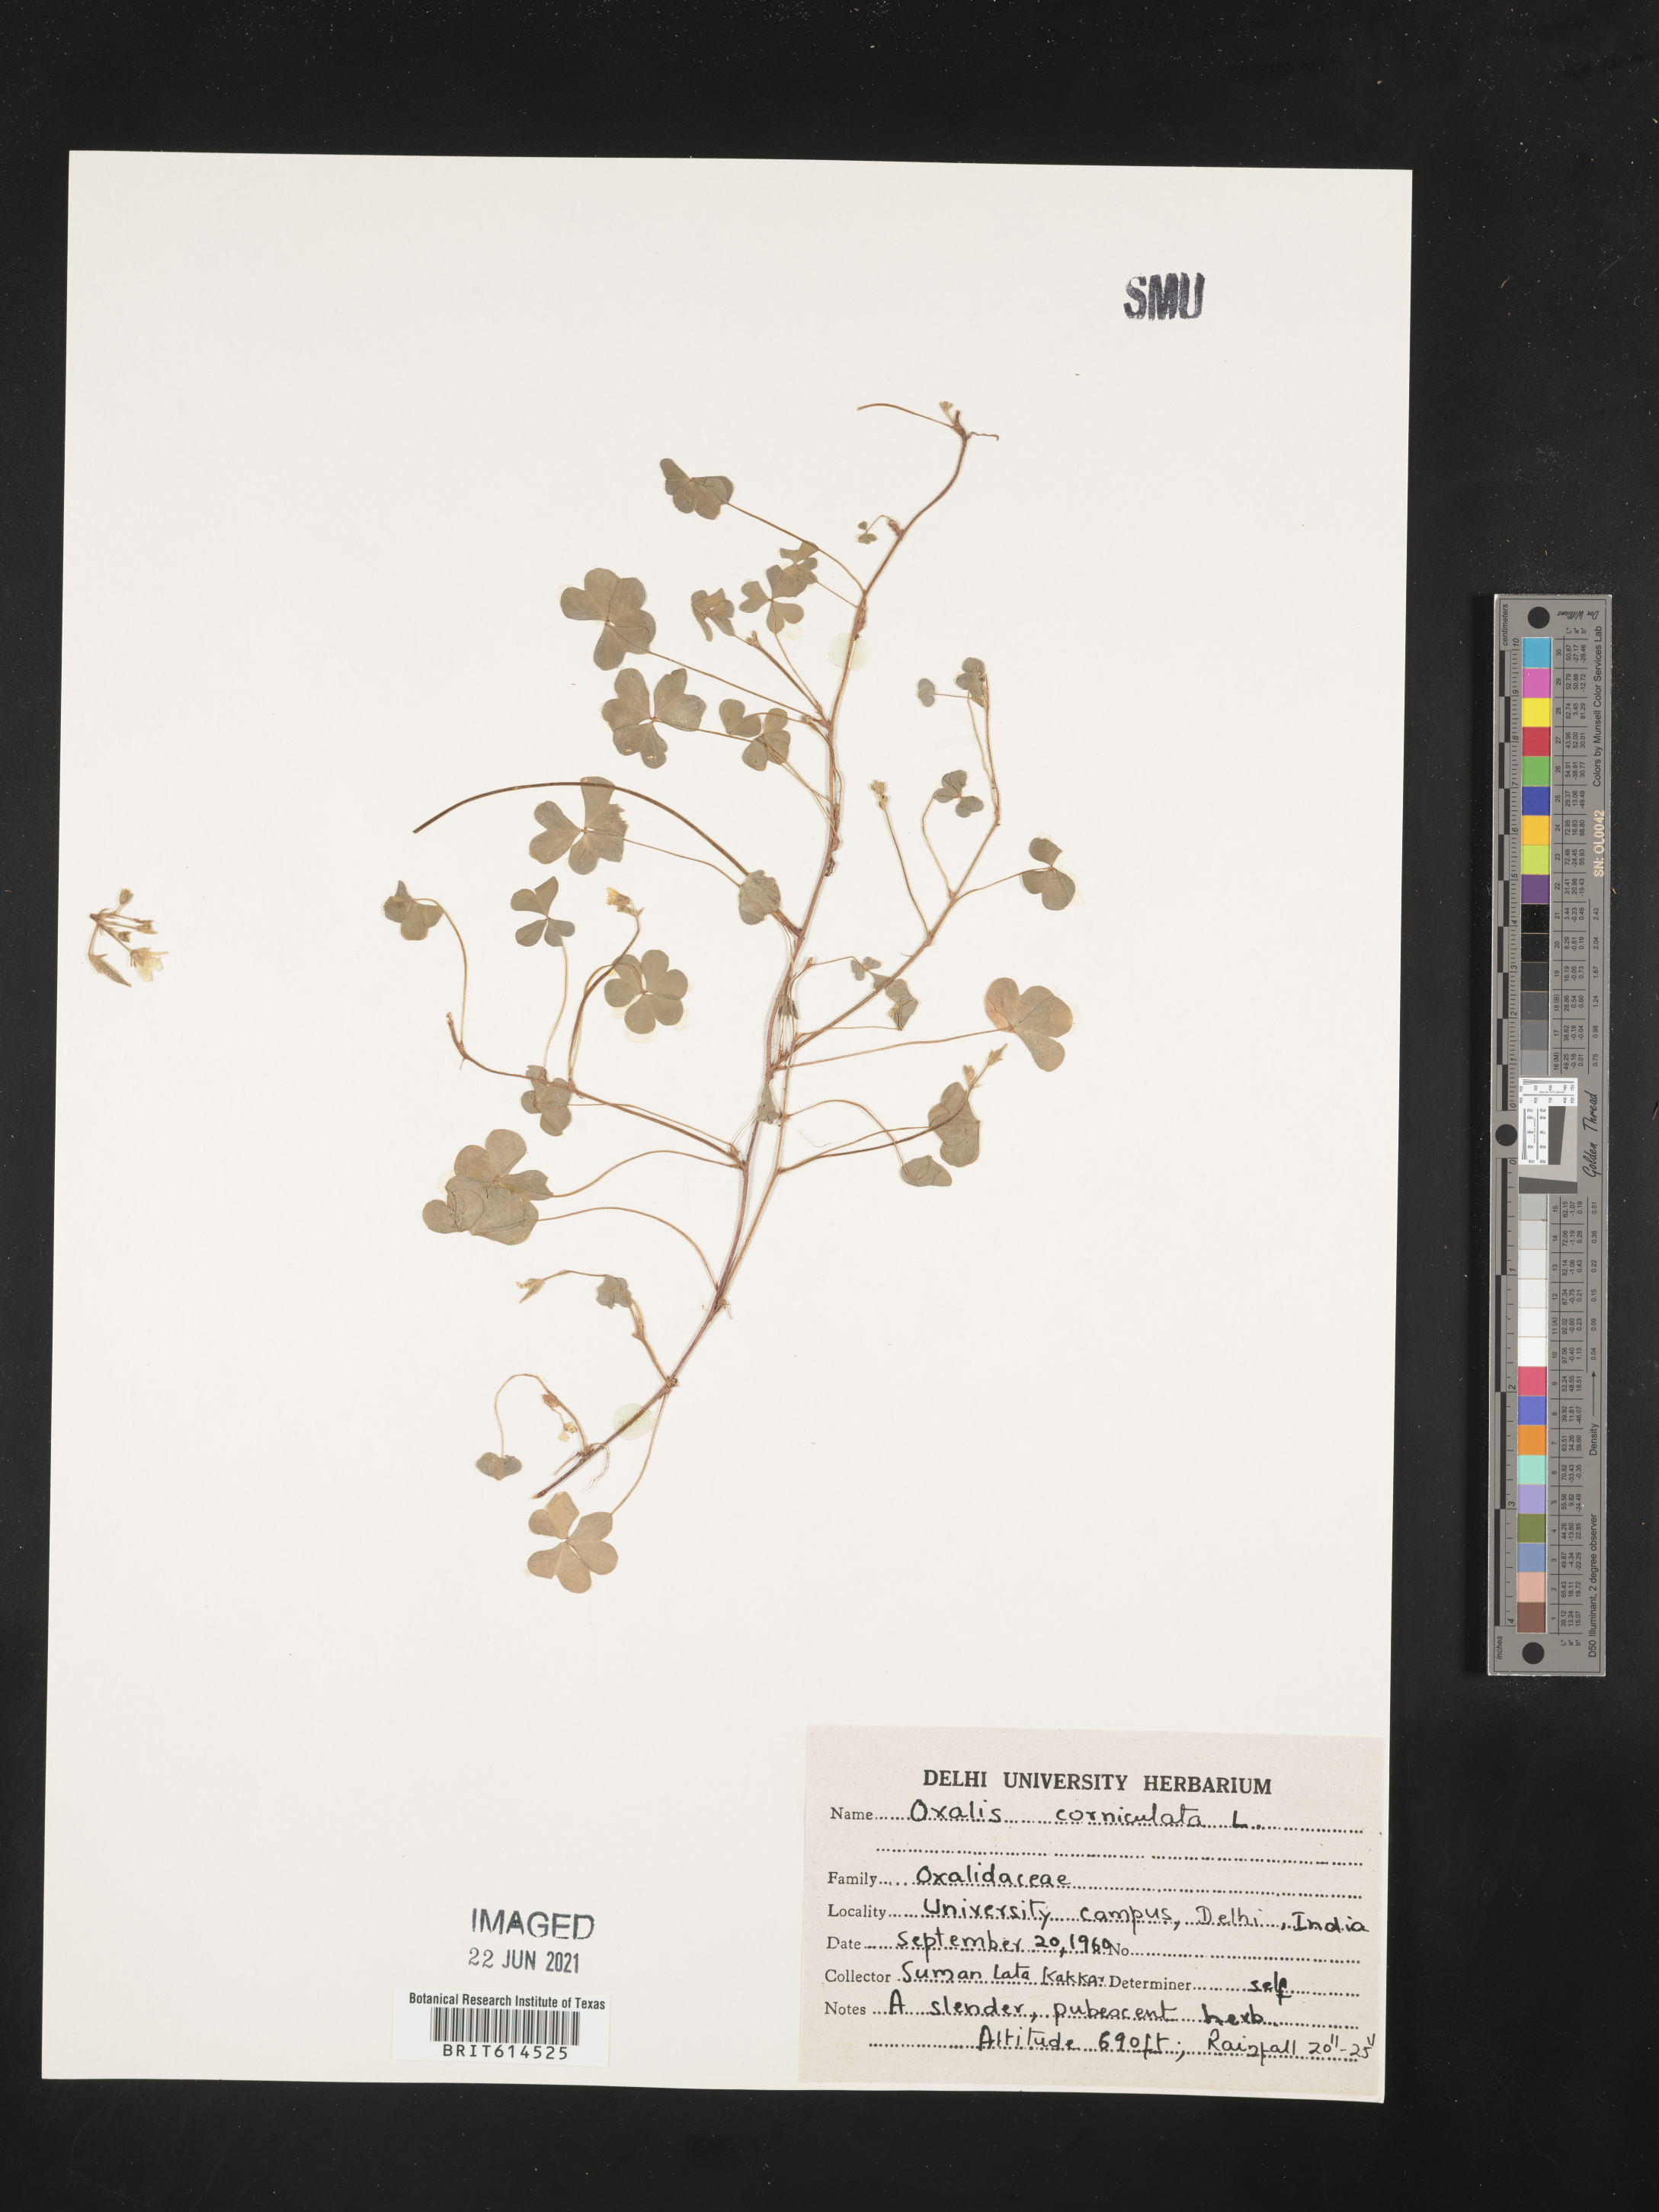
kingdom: Plantae
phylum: Tracheophyta
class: Magnoliopsida
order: Oxalidales
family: Oxalidaceae
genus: Oxalis
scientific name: Oxalis corniculata
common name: Procumbent yellow-sorrel
